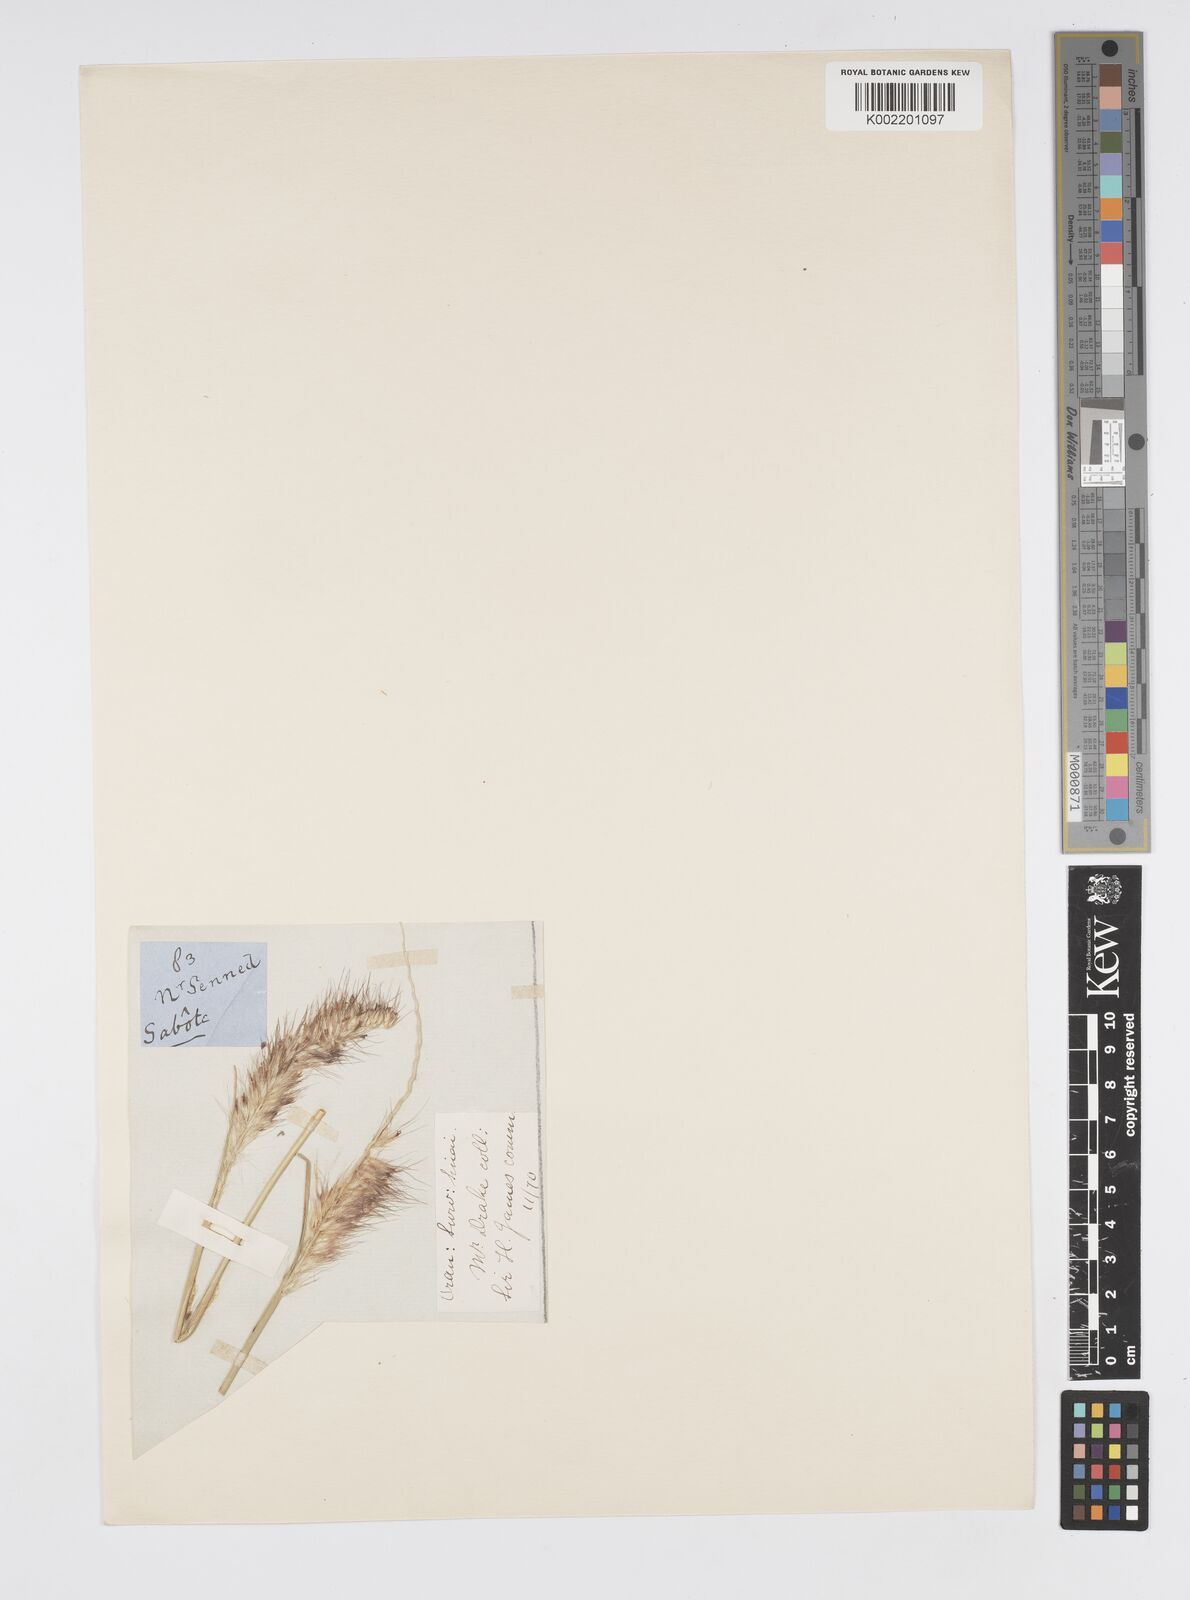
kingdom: Plantae
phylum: Tracheophyta
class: Liliopsida
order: Poales
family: Poaceae
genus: Cenchrus
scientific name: Cenchrus setaceus
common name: Crimson fountaingrass
